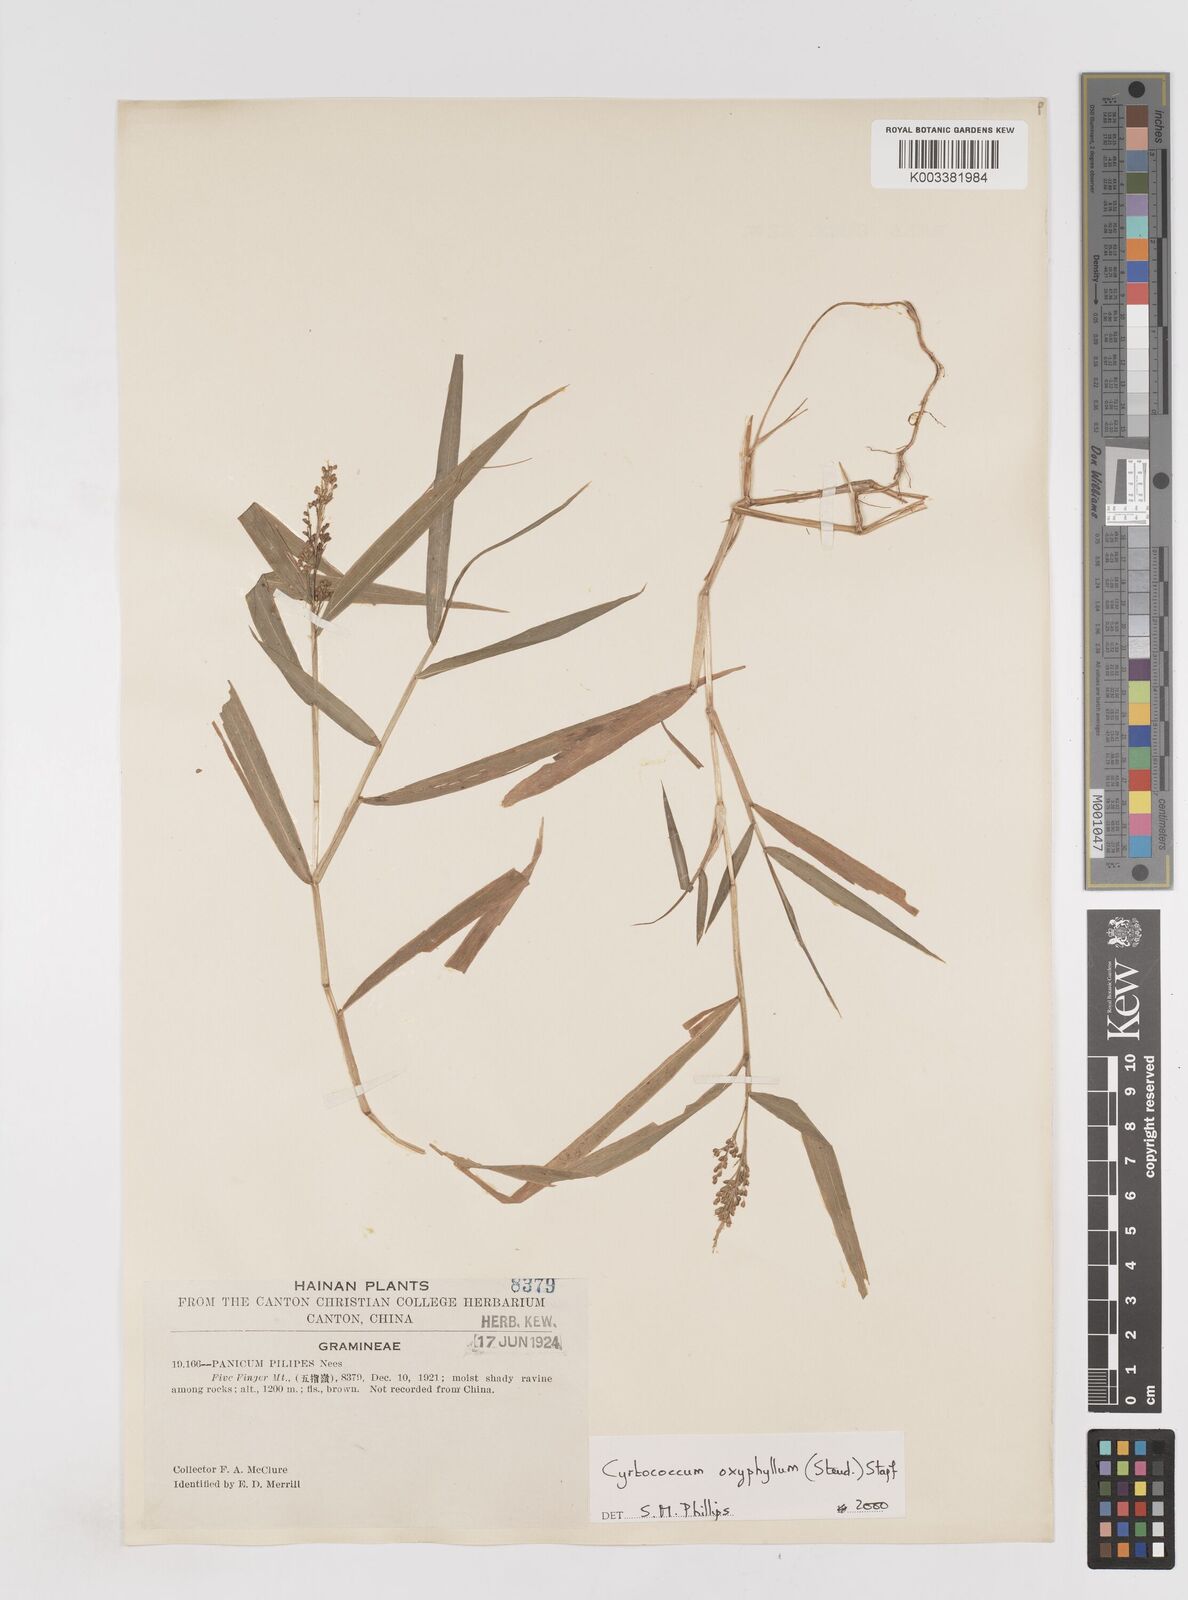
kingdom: Plantae
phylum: Tracheophyta
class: Liliopsida
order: Poales
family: Poaceae
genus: Cyrtococcum
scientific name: Cyrtococcum oxyphyllum
